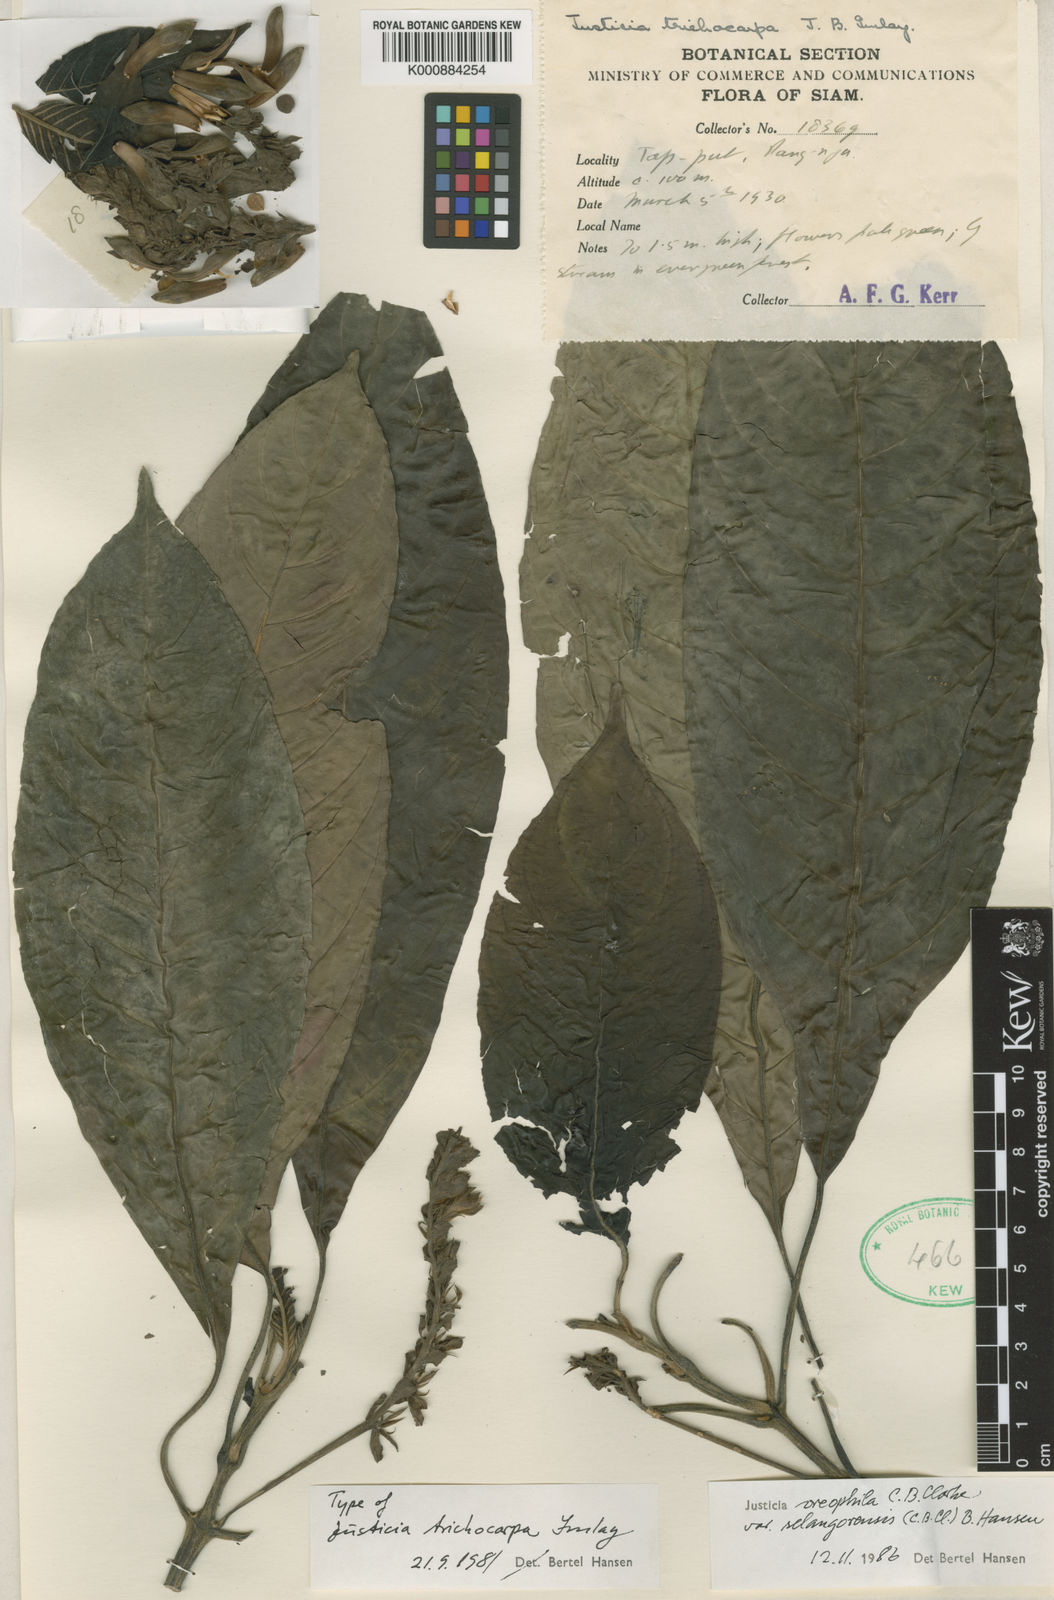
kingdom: Plantae
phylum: Tracheophyta
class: Magnoliopsida
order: Lamiales
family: Acanthaceae
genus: Justicia
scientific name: Justicia oreophila
